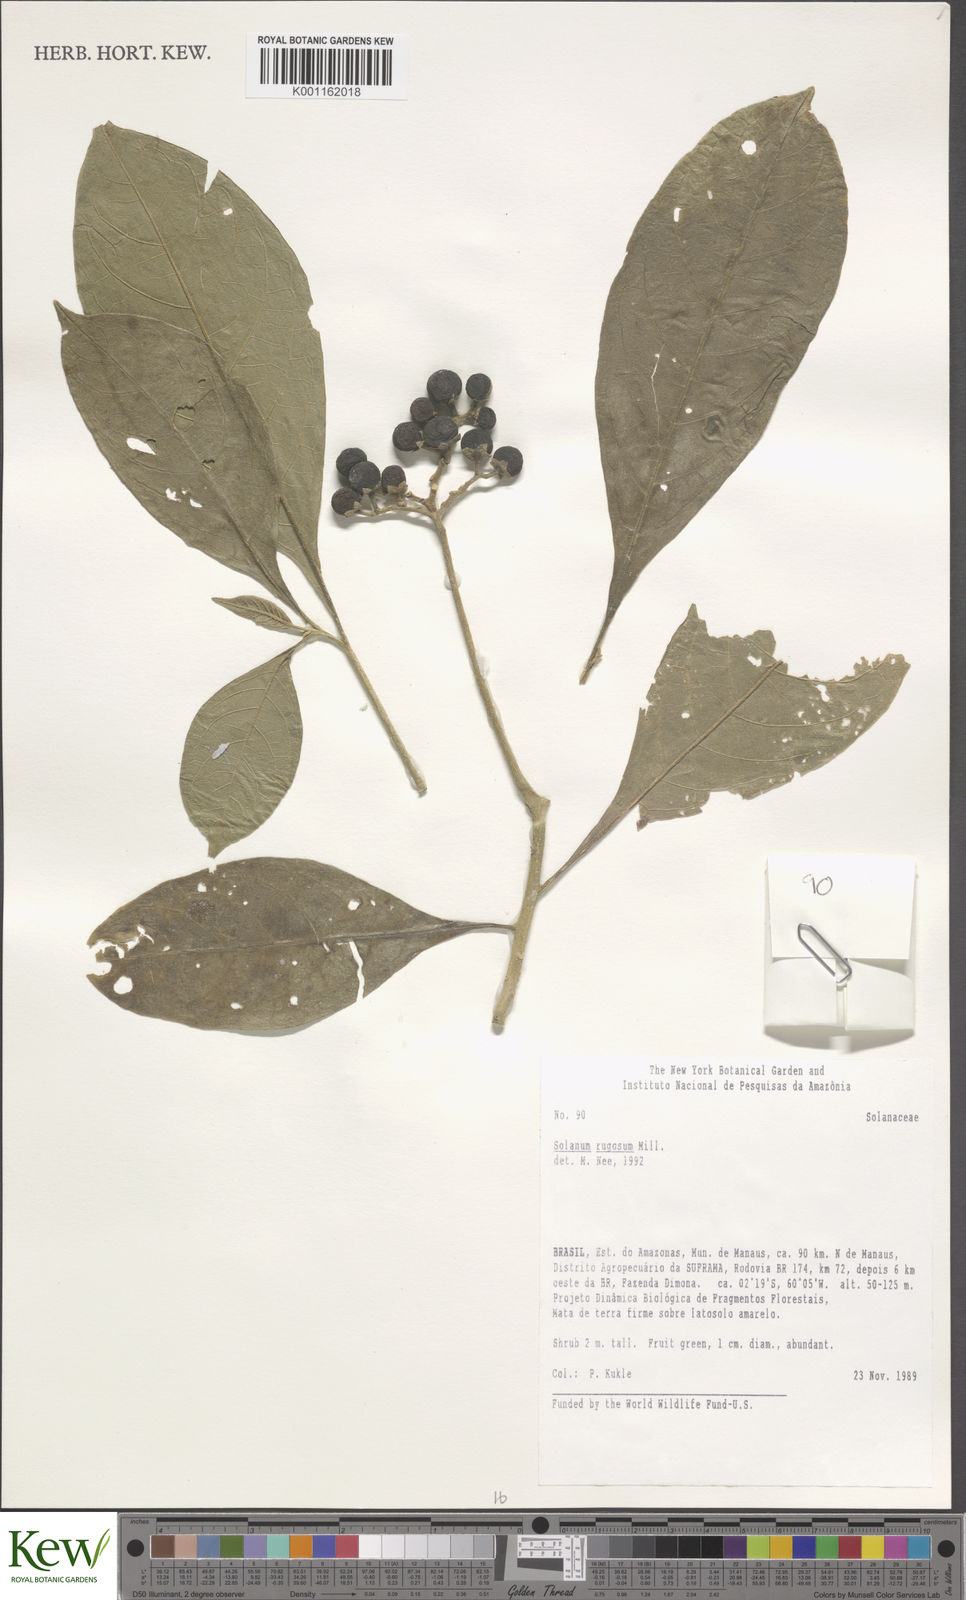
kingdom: Plantae
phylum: Tracheophyta
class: Magnoliopsida
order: Solanales
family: Solanaceae
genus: Solanum
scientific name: Solanum rugosum
